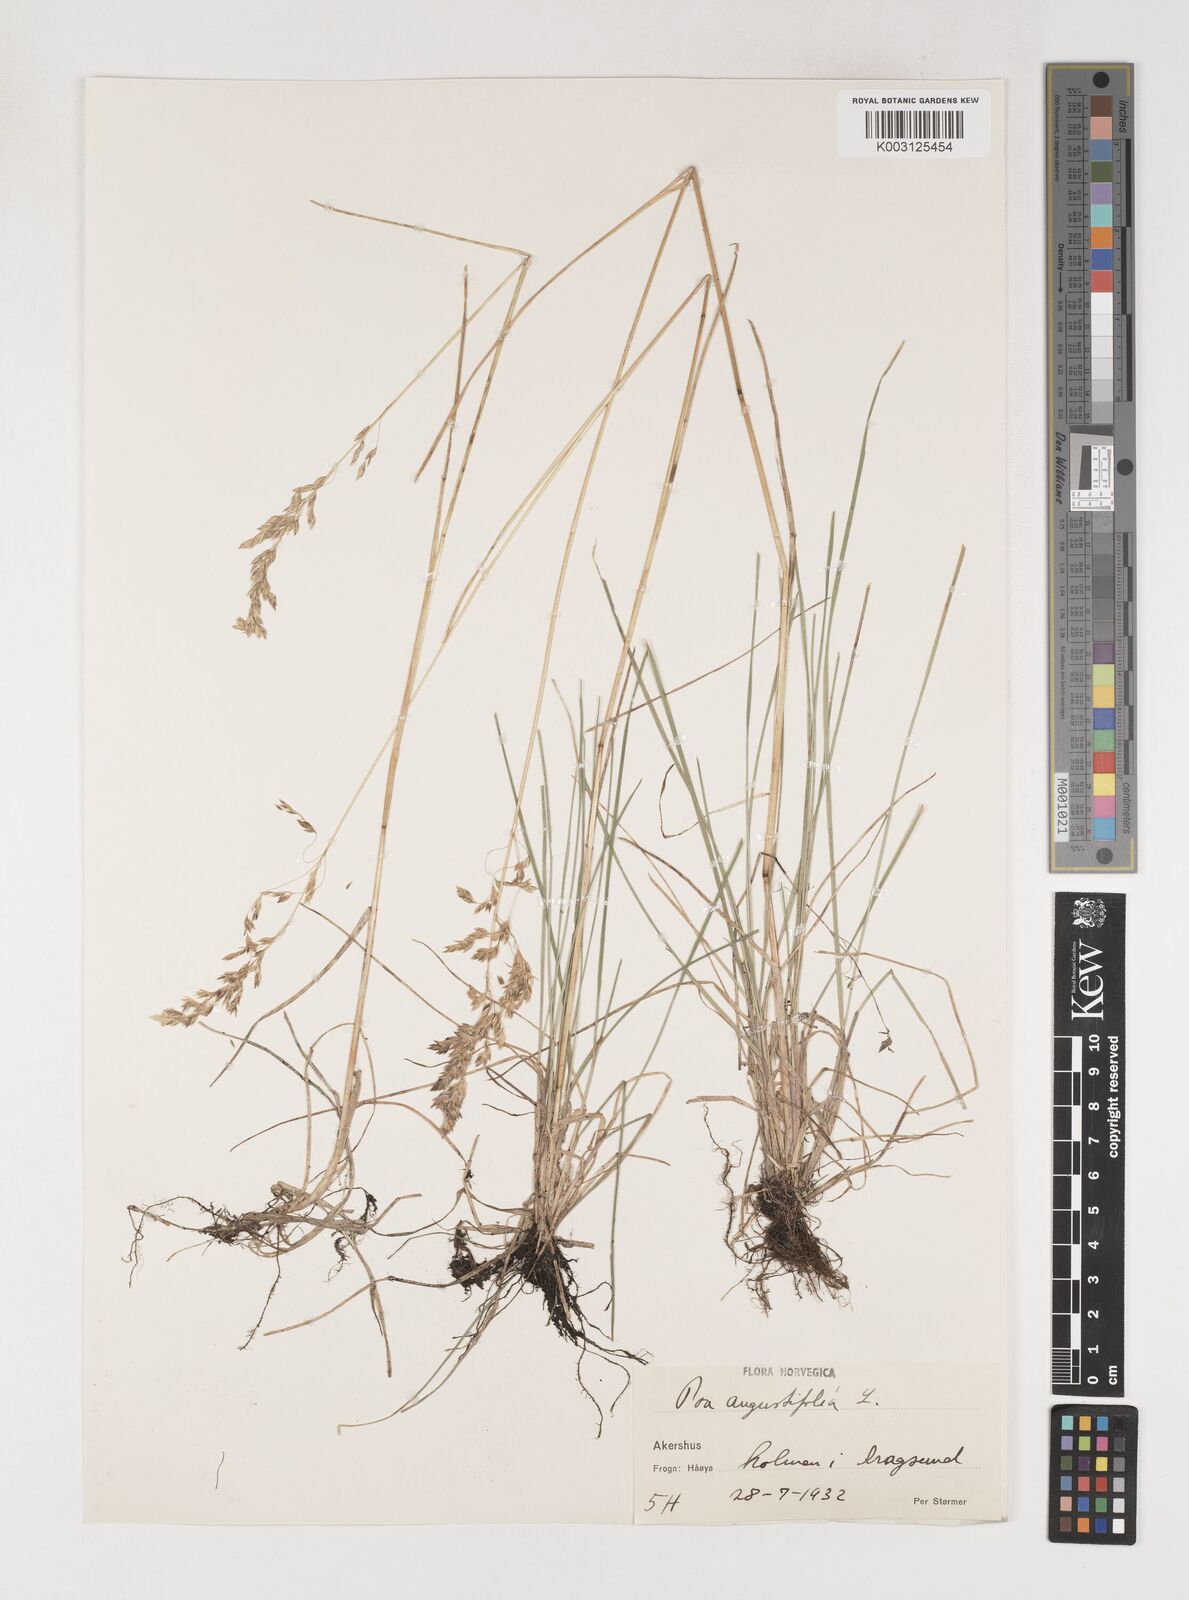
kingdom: Plantae
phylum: Tracheophyta
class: Liliopsida
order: Poales
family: Poaceae
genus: Poa
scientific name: Poa angustifolia
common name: Narrow-leaved meadow-grass
